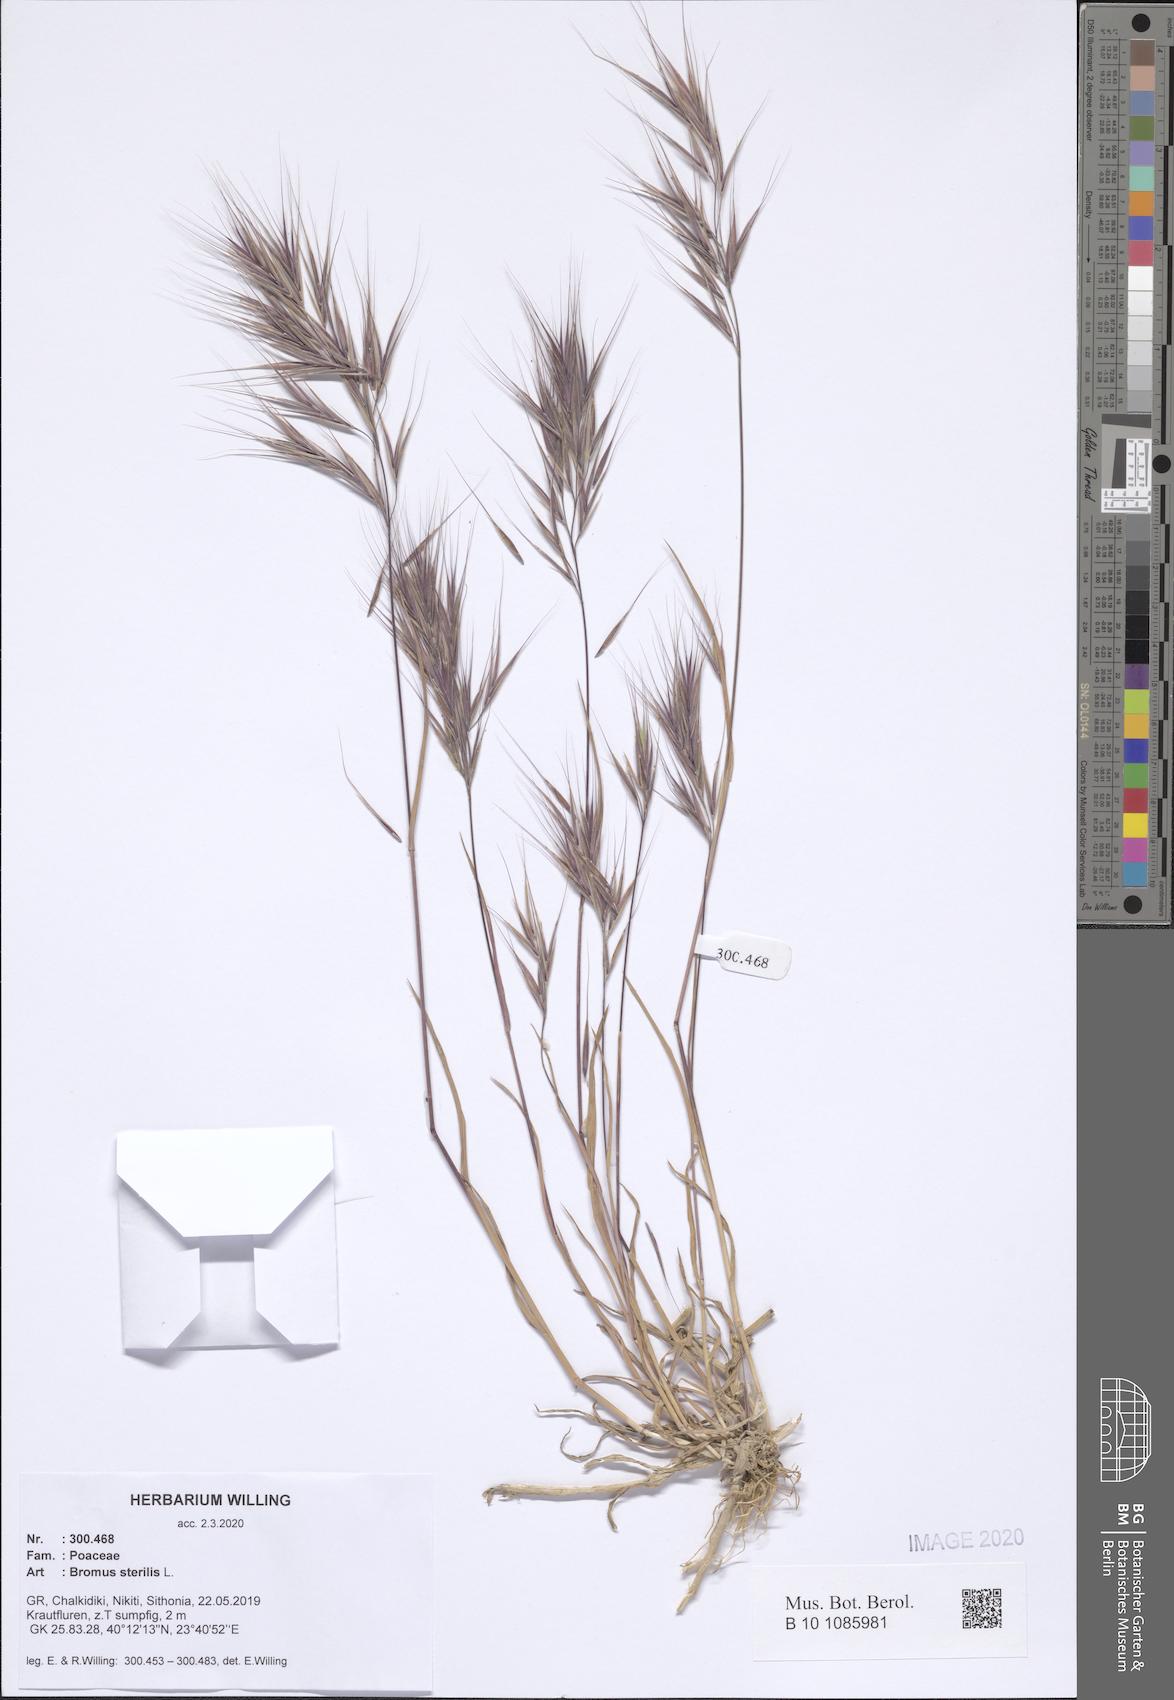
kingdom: Plantae
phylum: Tracheophyta
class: Liliopsida
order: Poales
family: Poaceae
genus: Bromus
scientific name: Bromus sterilis
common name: Poverty brome
